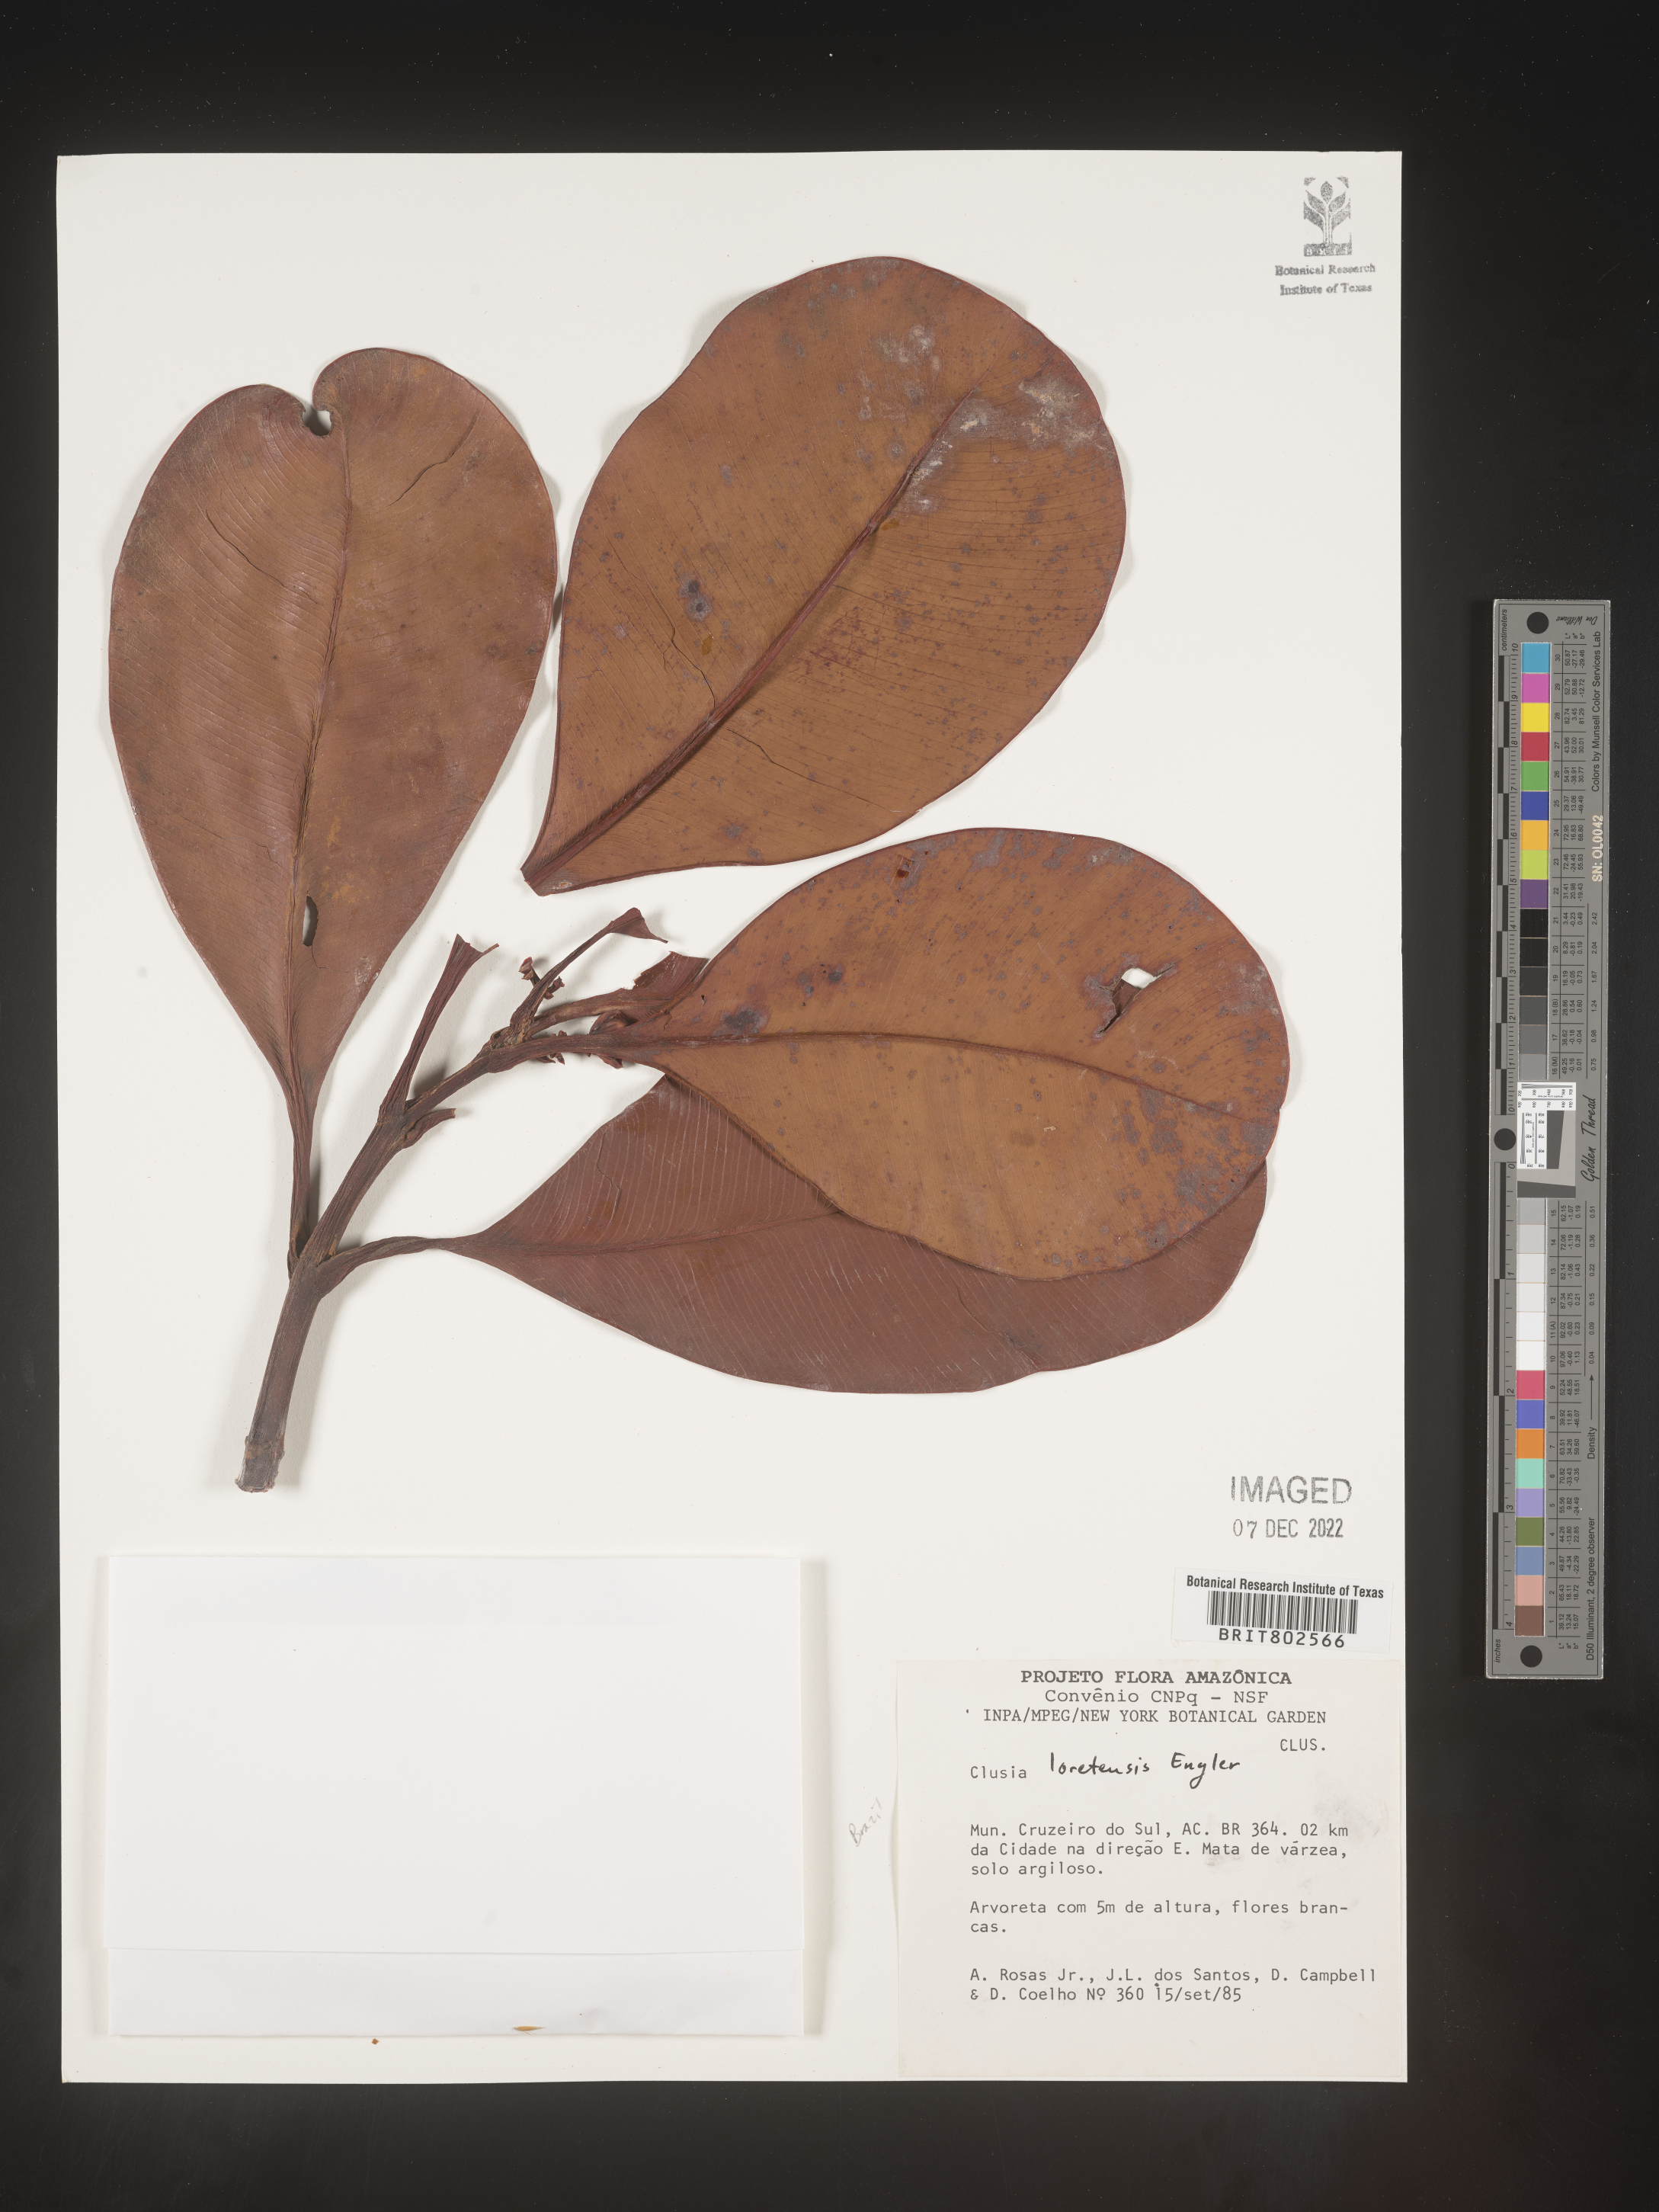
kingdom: Plantae
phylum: Tracheophyta
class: Magnoliopsida
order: Malpighiales
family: Clusiaceae
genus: Clusia
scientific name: Clusia loretensis
